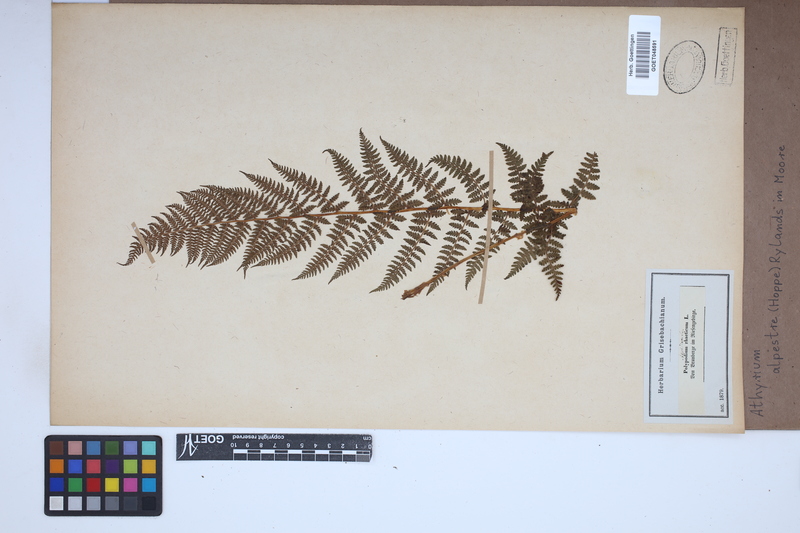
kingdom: Plantae
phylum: Tracheophyta
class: Polypodiopsida
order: Polypodiales
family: Athyriaceae
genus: Pseudathyrium
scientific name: Pseudathyrium alpestre
